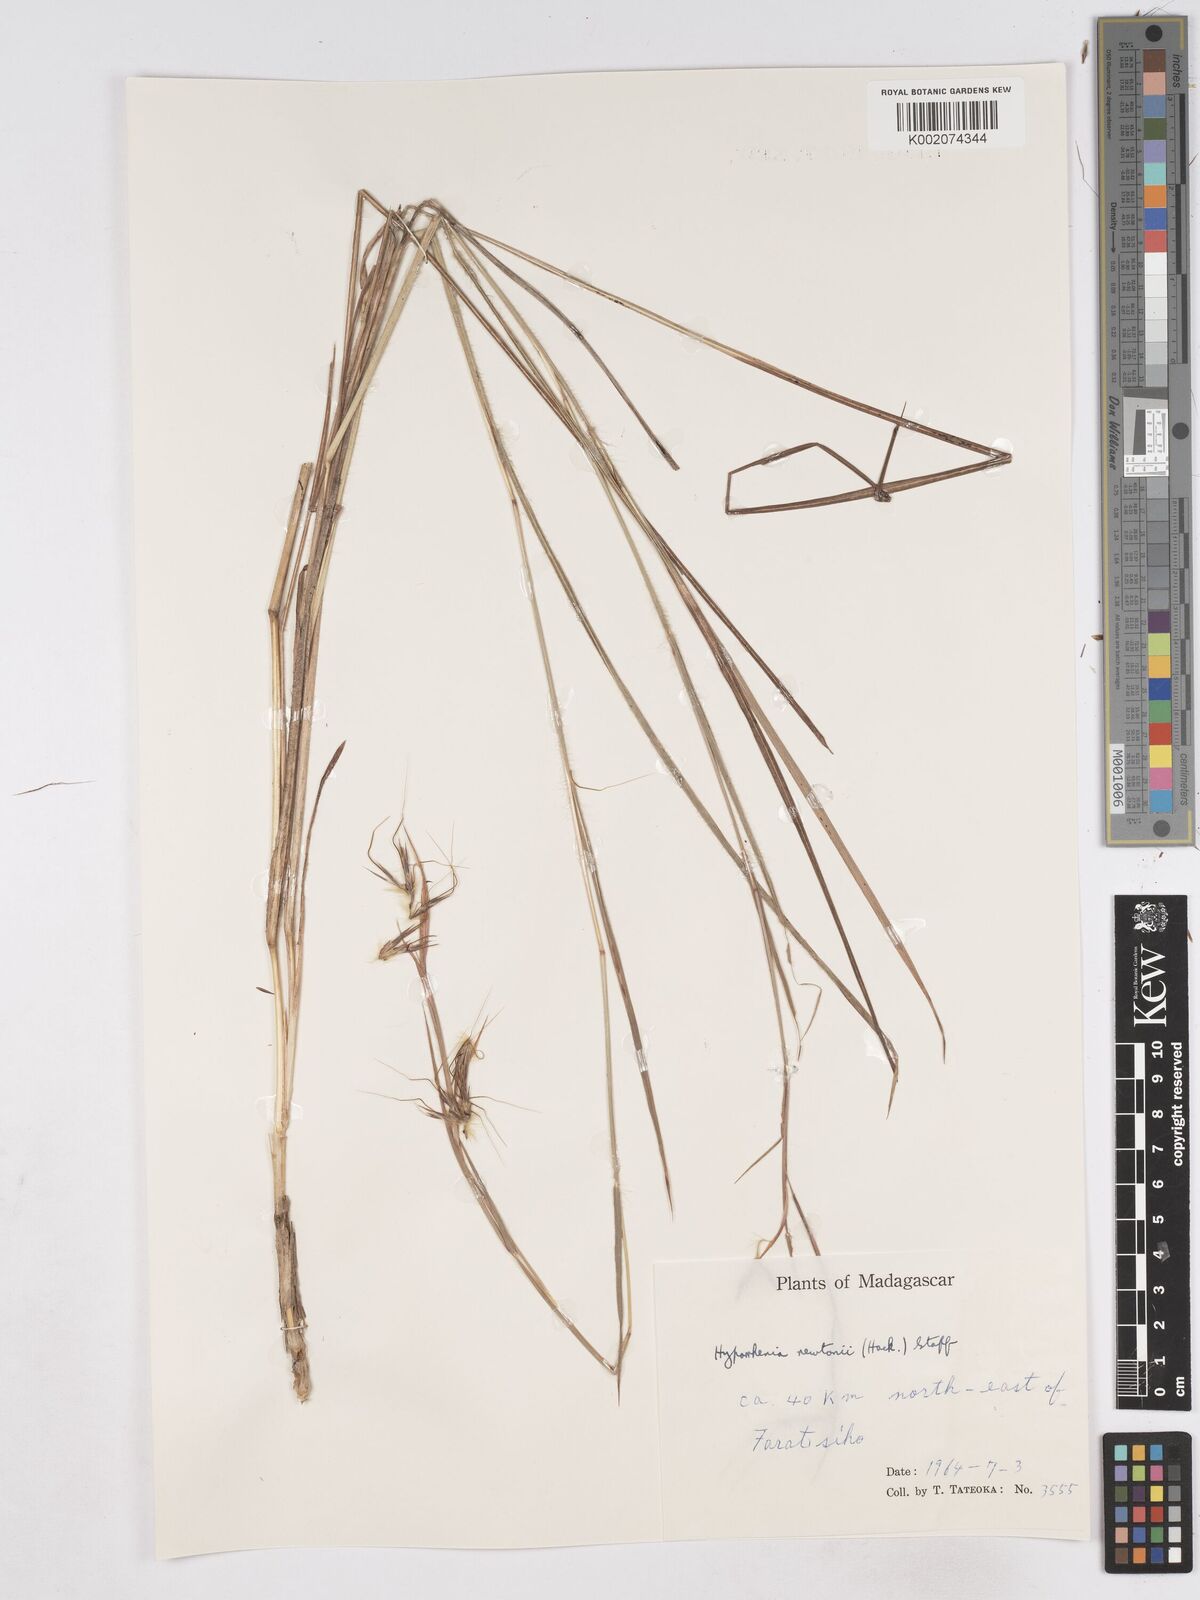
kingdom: Plantae
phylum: Tracheophyta
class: Liliopsida
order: Poales
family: Poaceae
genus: Hyparrhenia
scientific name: Hyparrhenia newtonii
